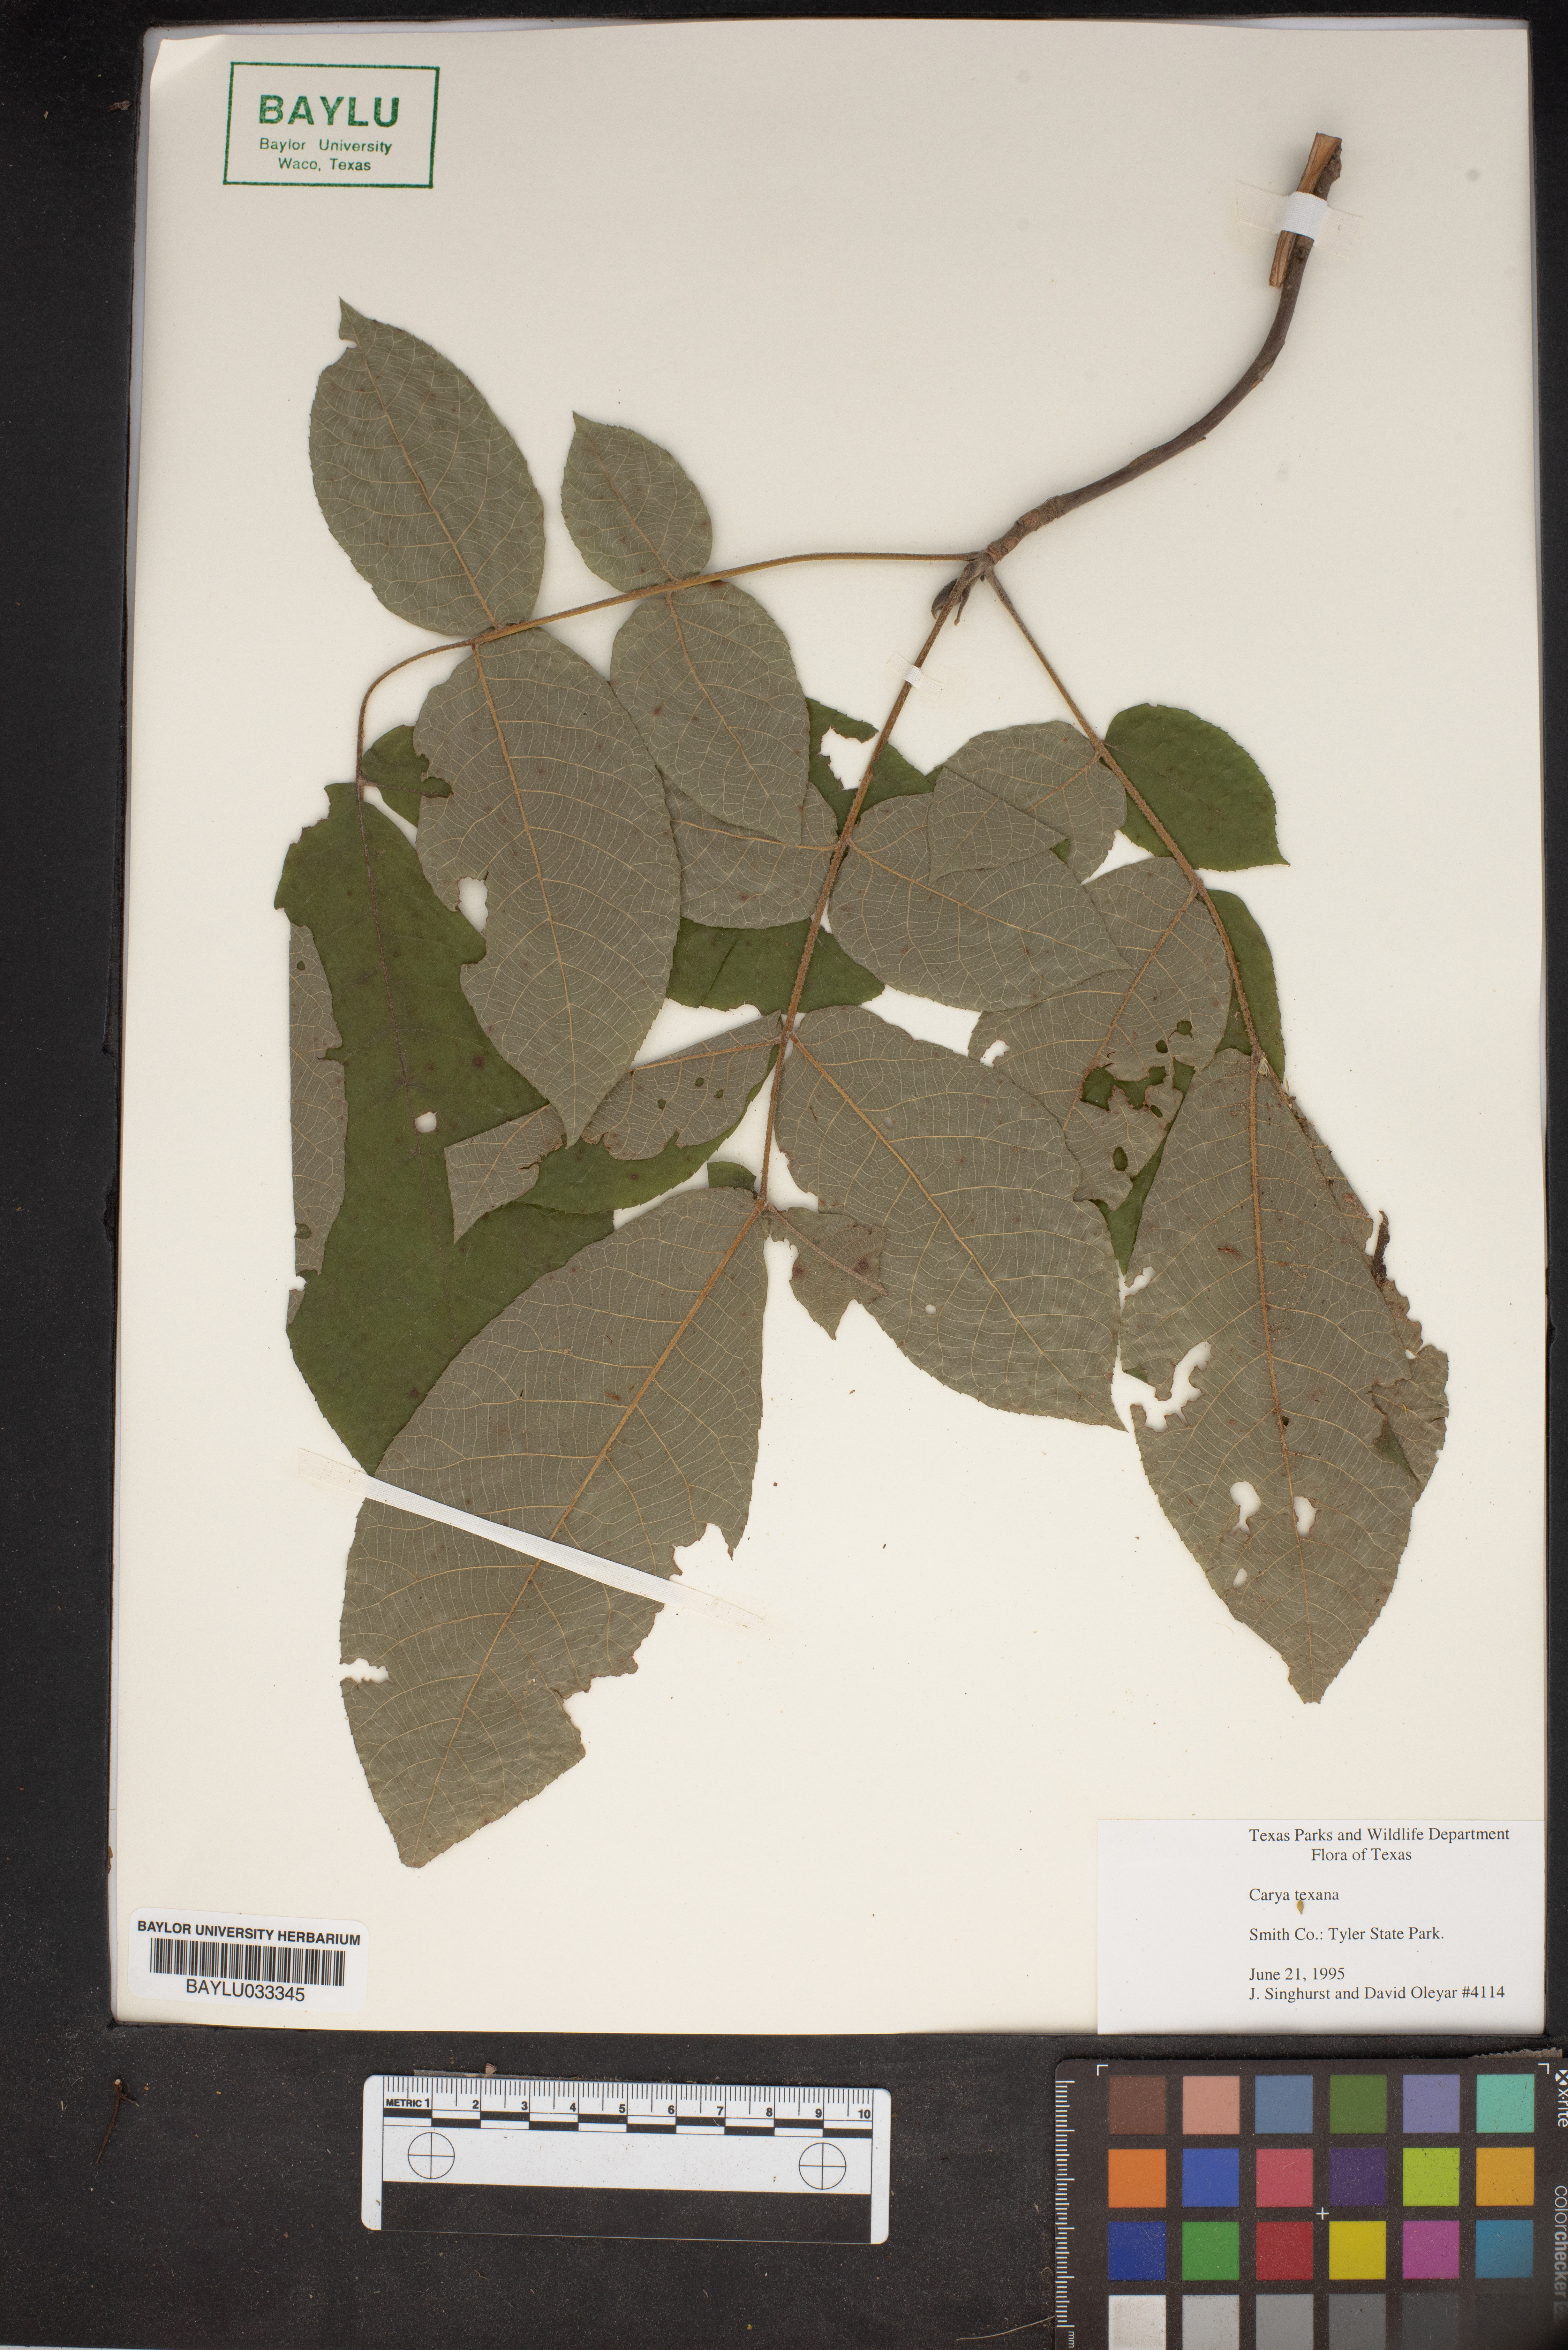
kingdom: Plantae
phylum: Tracheophyta
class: Magnoliopsida
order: Fagales
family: Juglandaceae
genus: Carya
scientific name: Carya texana
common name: Black hickory
